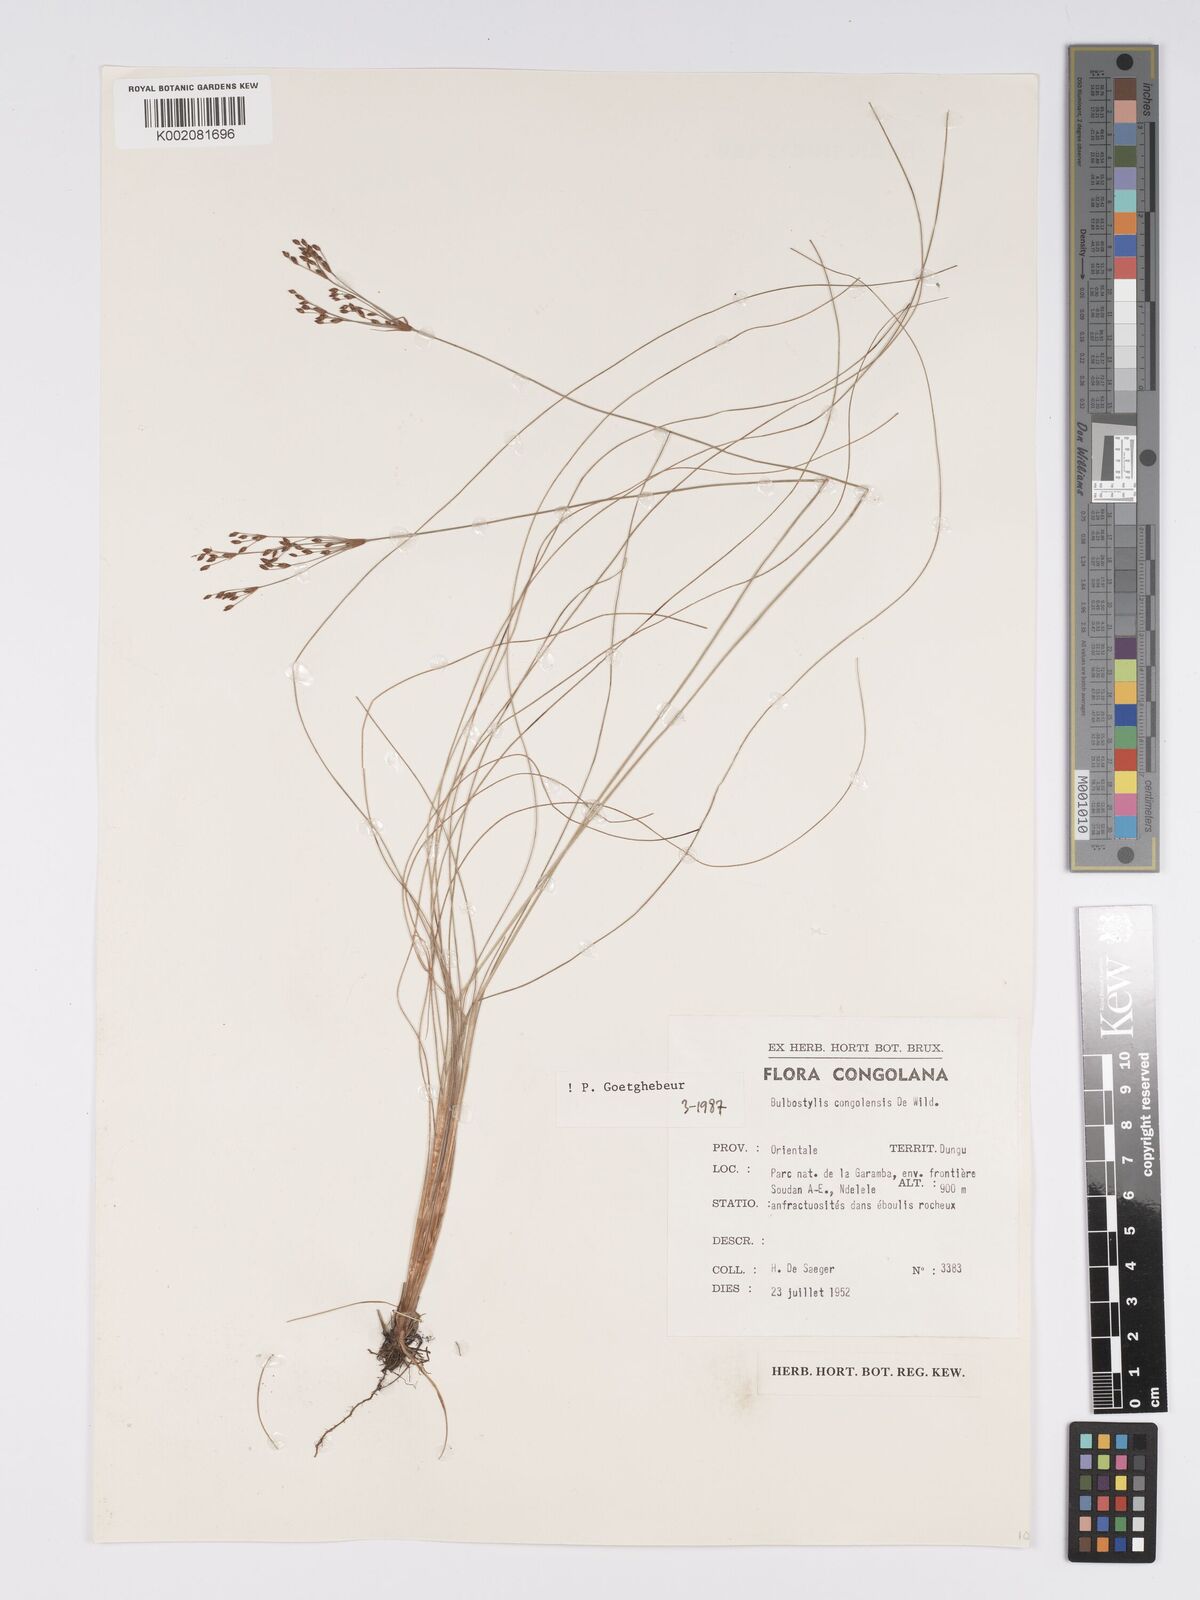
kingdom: Plantae
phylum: Tracheophyta
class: Liliopsida
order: Poales
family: Cyperaceae
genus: Bulbostylis
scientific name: Bulbostylis congolensis
